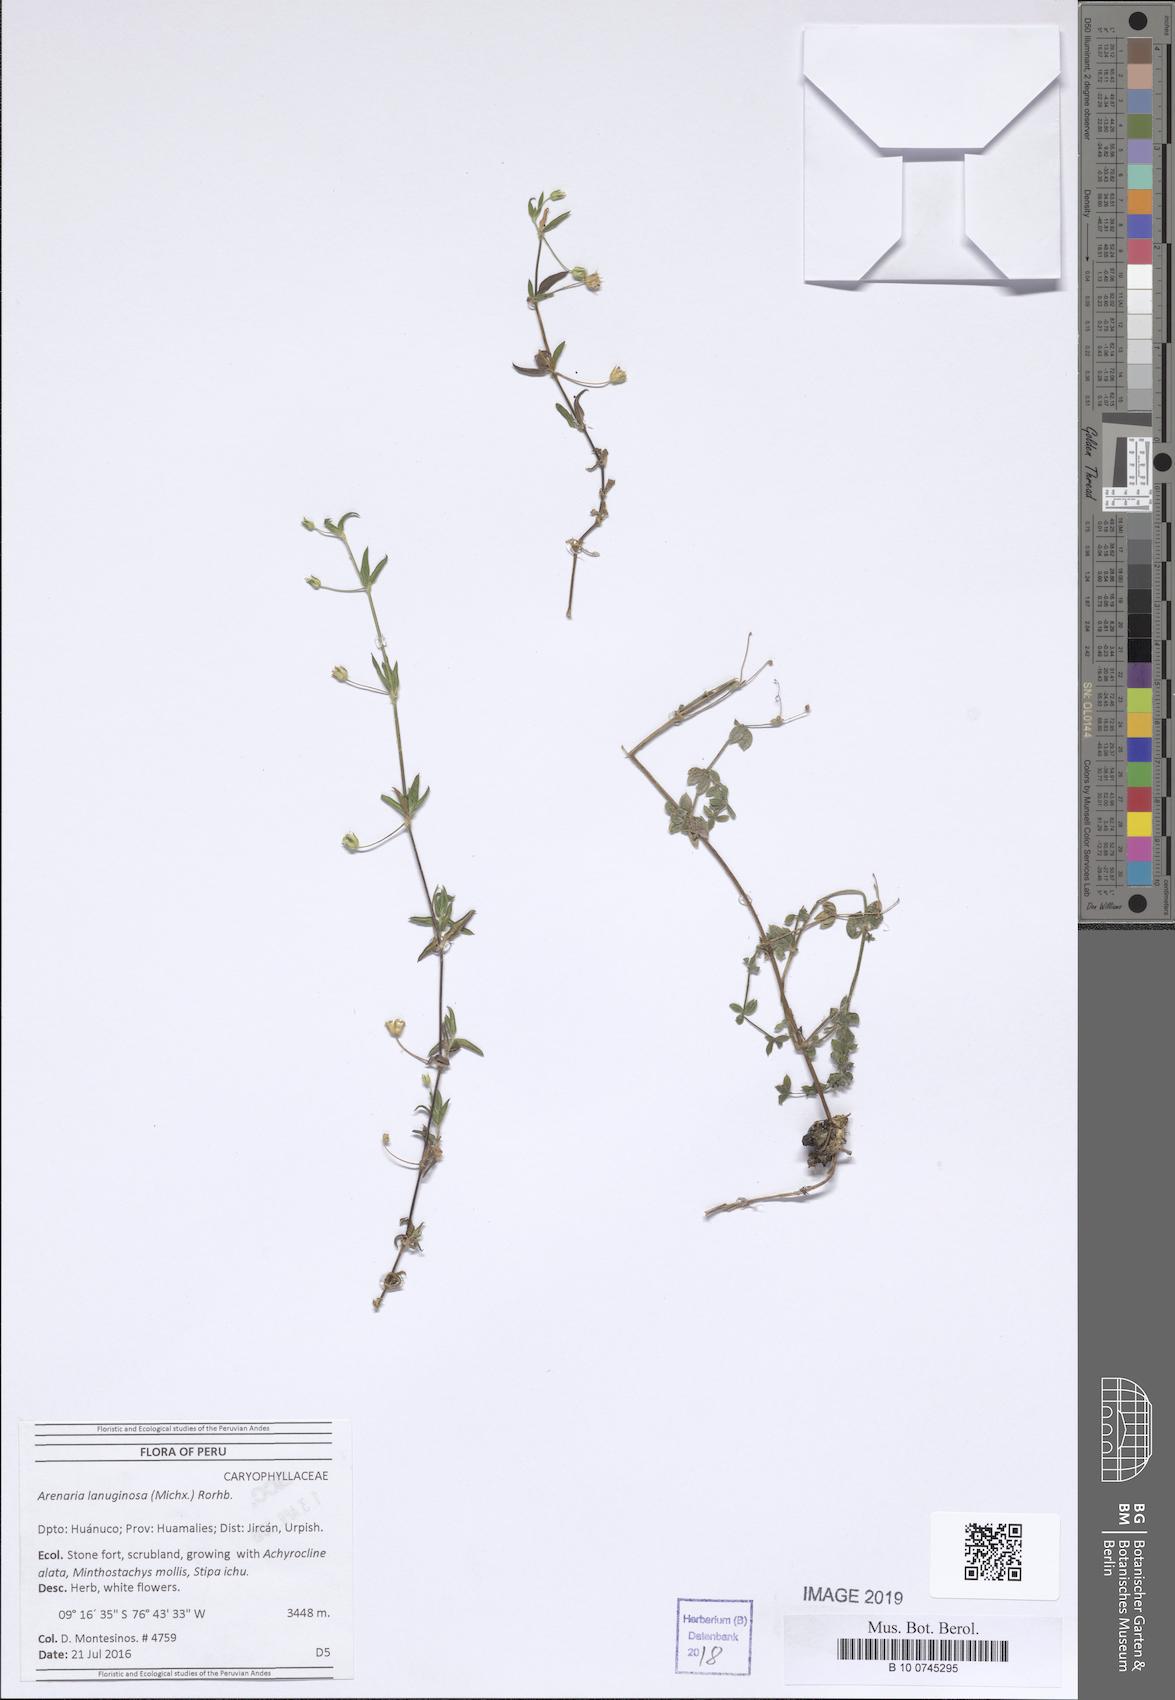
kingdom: Plantae
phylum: Tracheophyta
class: Magnoliopsida
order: Caryophyllales
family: Caryophyllaceae
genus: Arenaria
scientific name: Arenaria lanuginosa
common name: Spread sandwort
